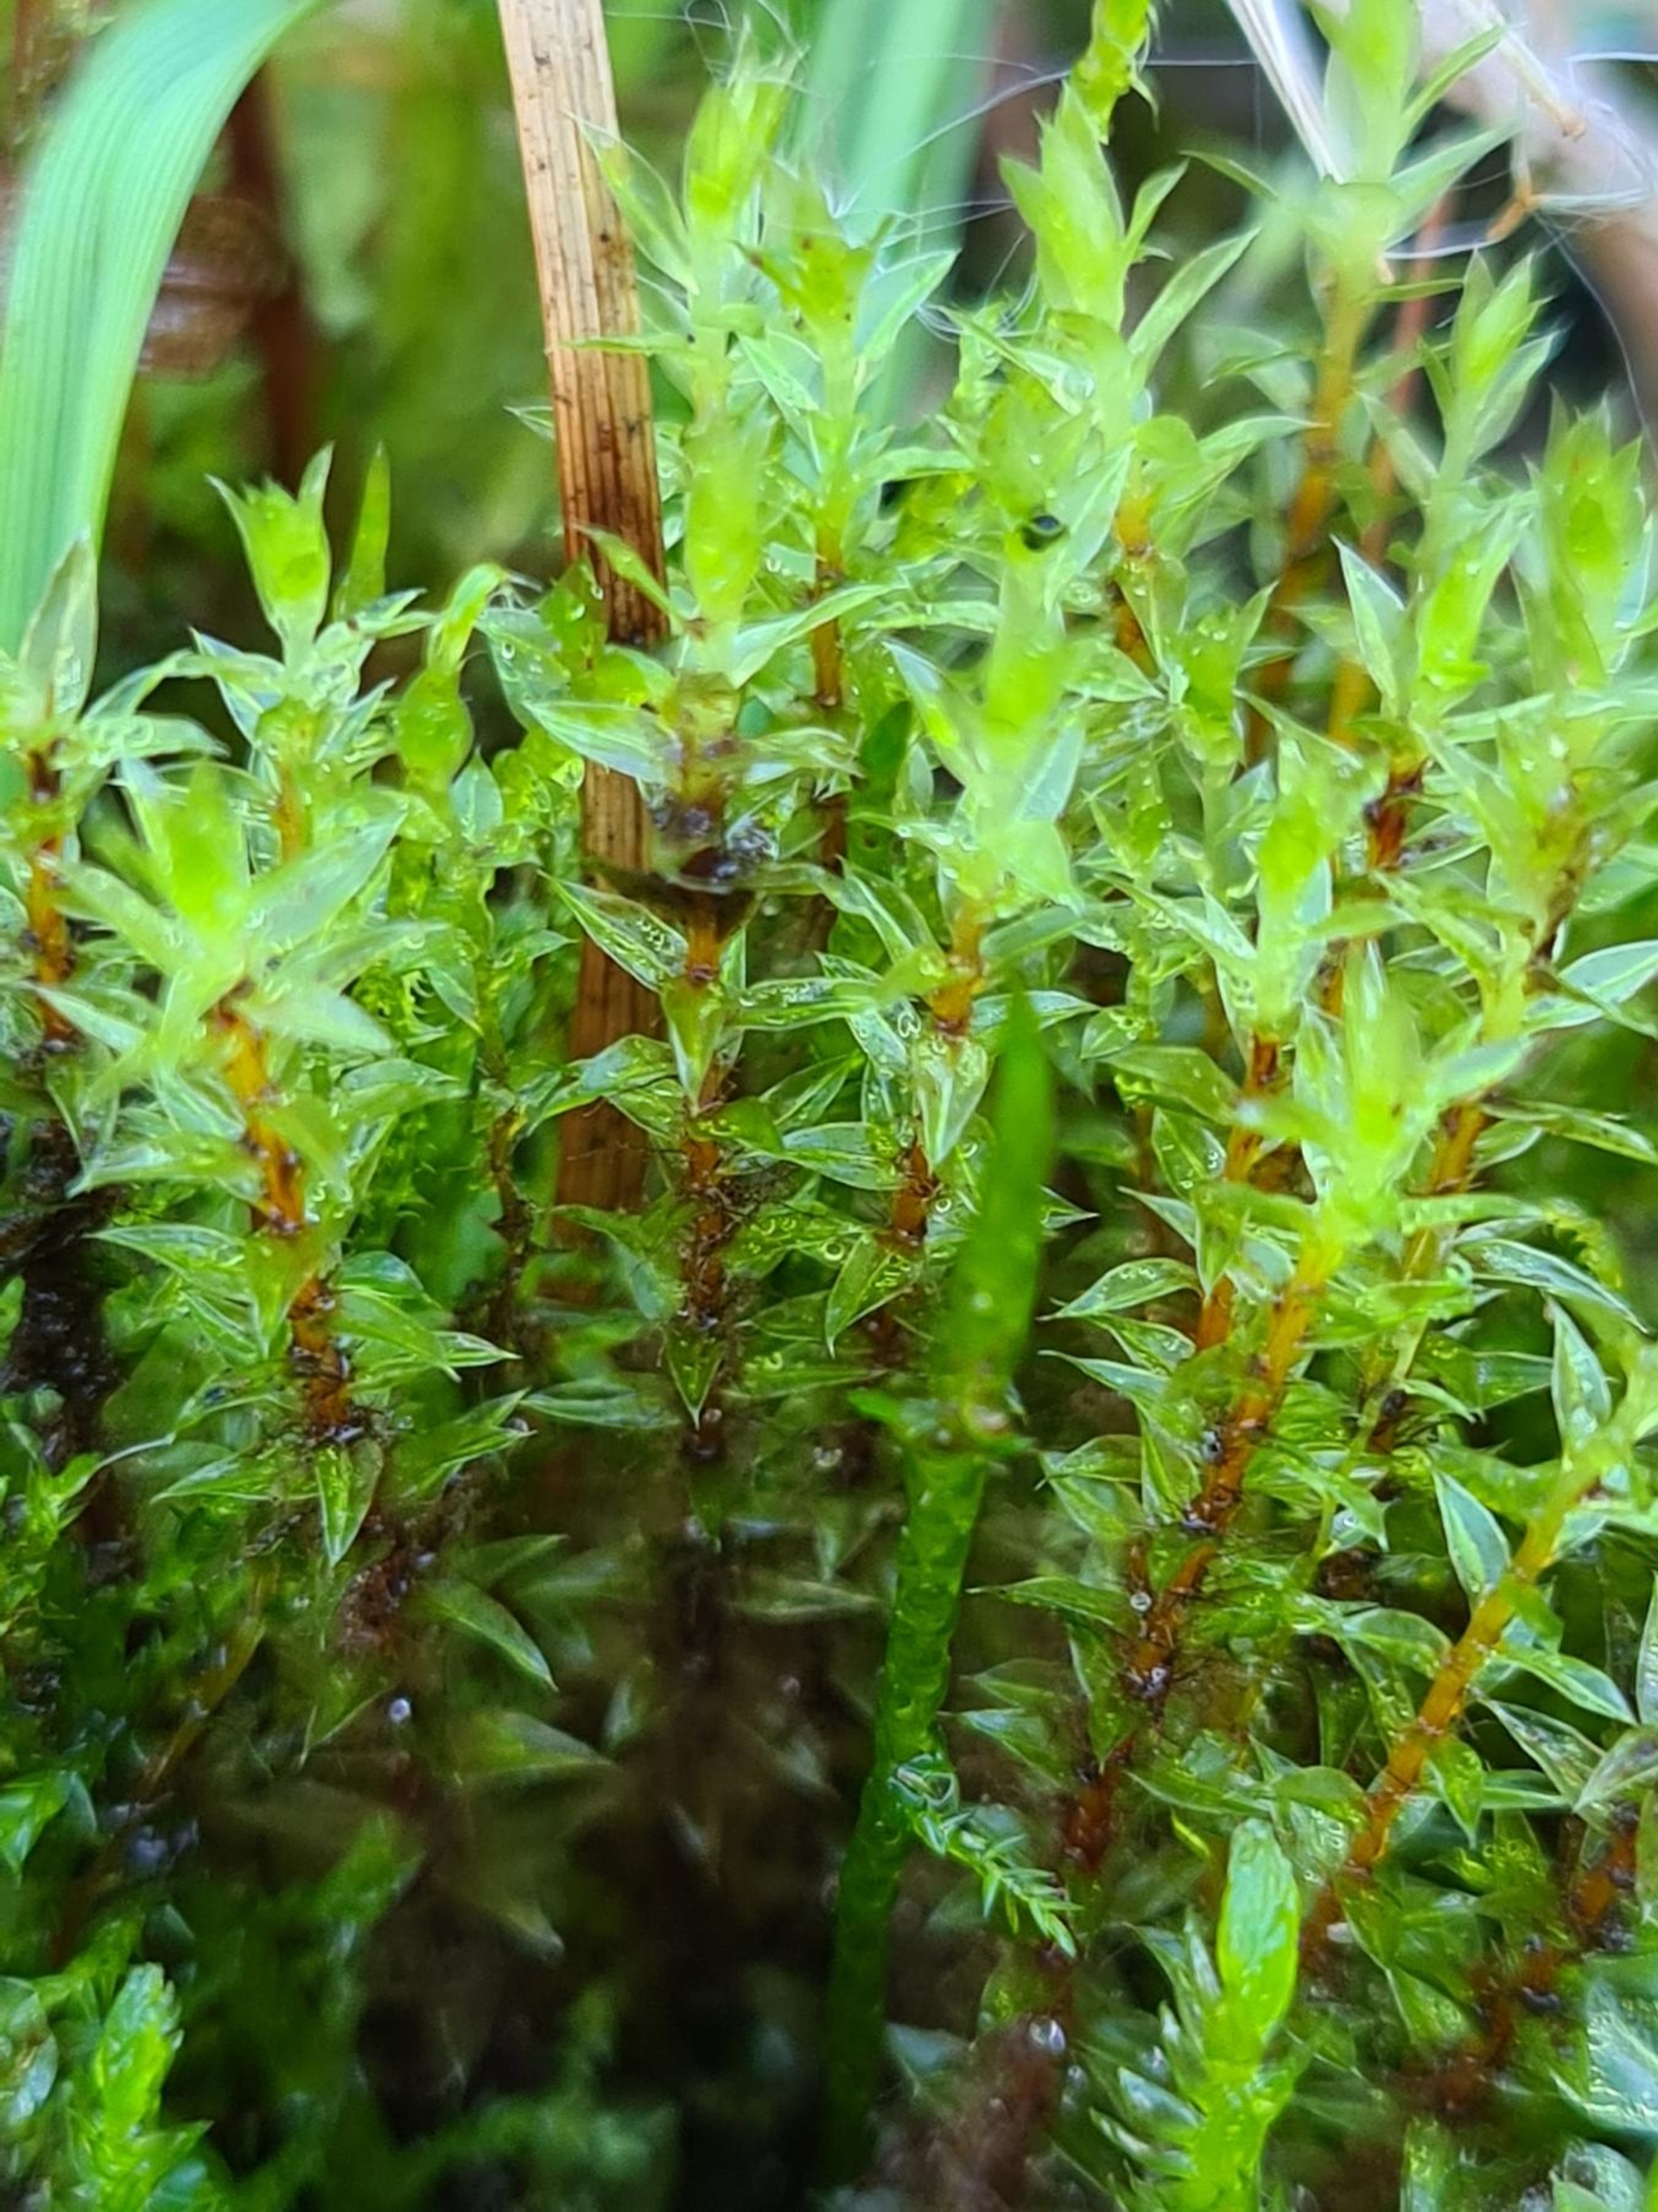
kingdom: Plantae
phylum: Bryophyta
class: Bryopsida
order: Bryales
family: Bryaceae
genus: Ptychostomum
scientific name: Ptychostomum pseudotriquetrum
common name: Nedløbende bryum
